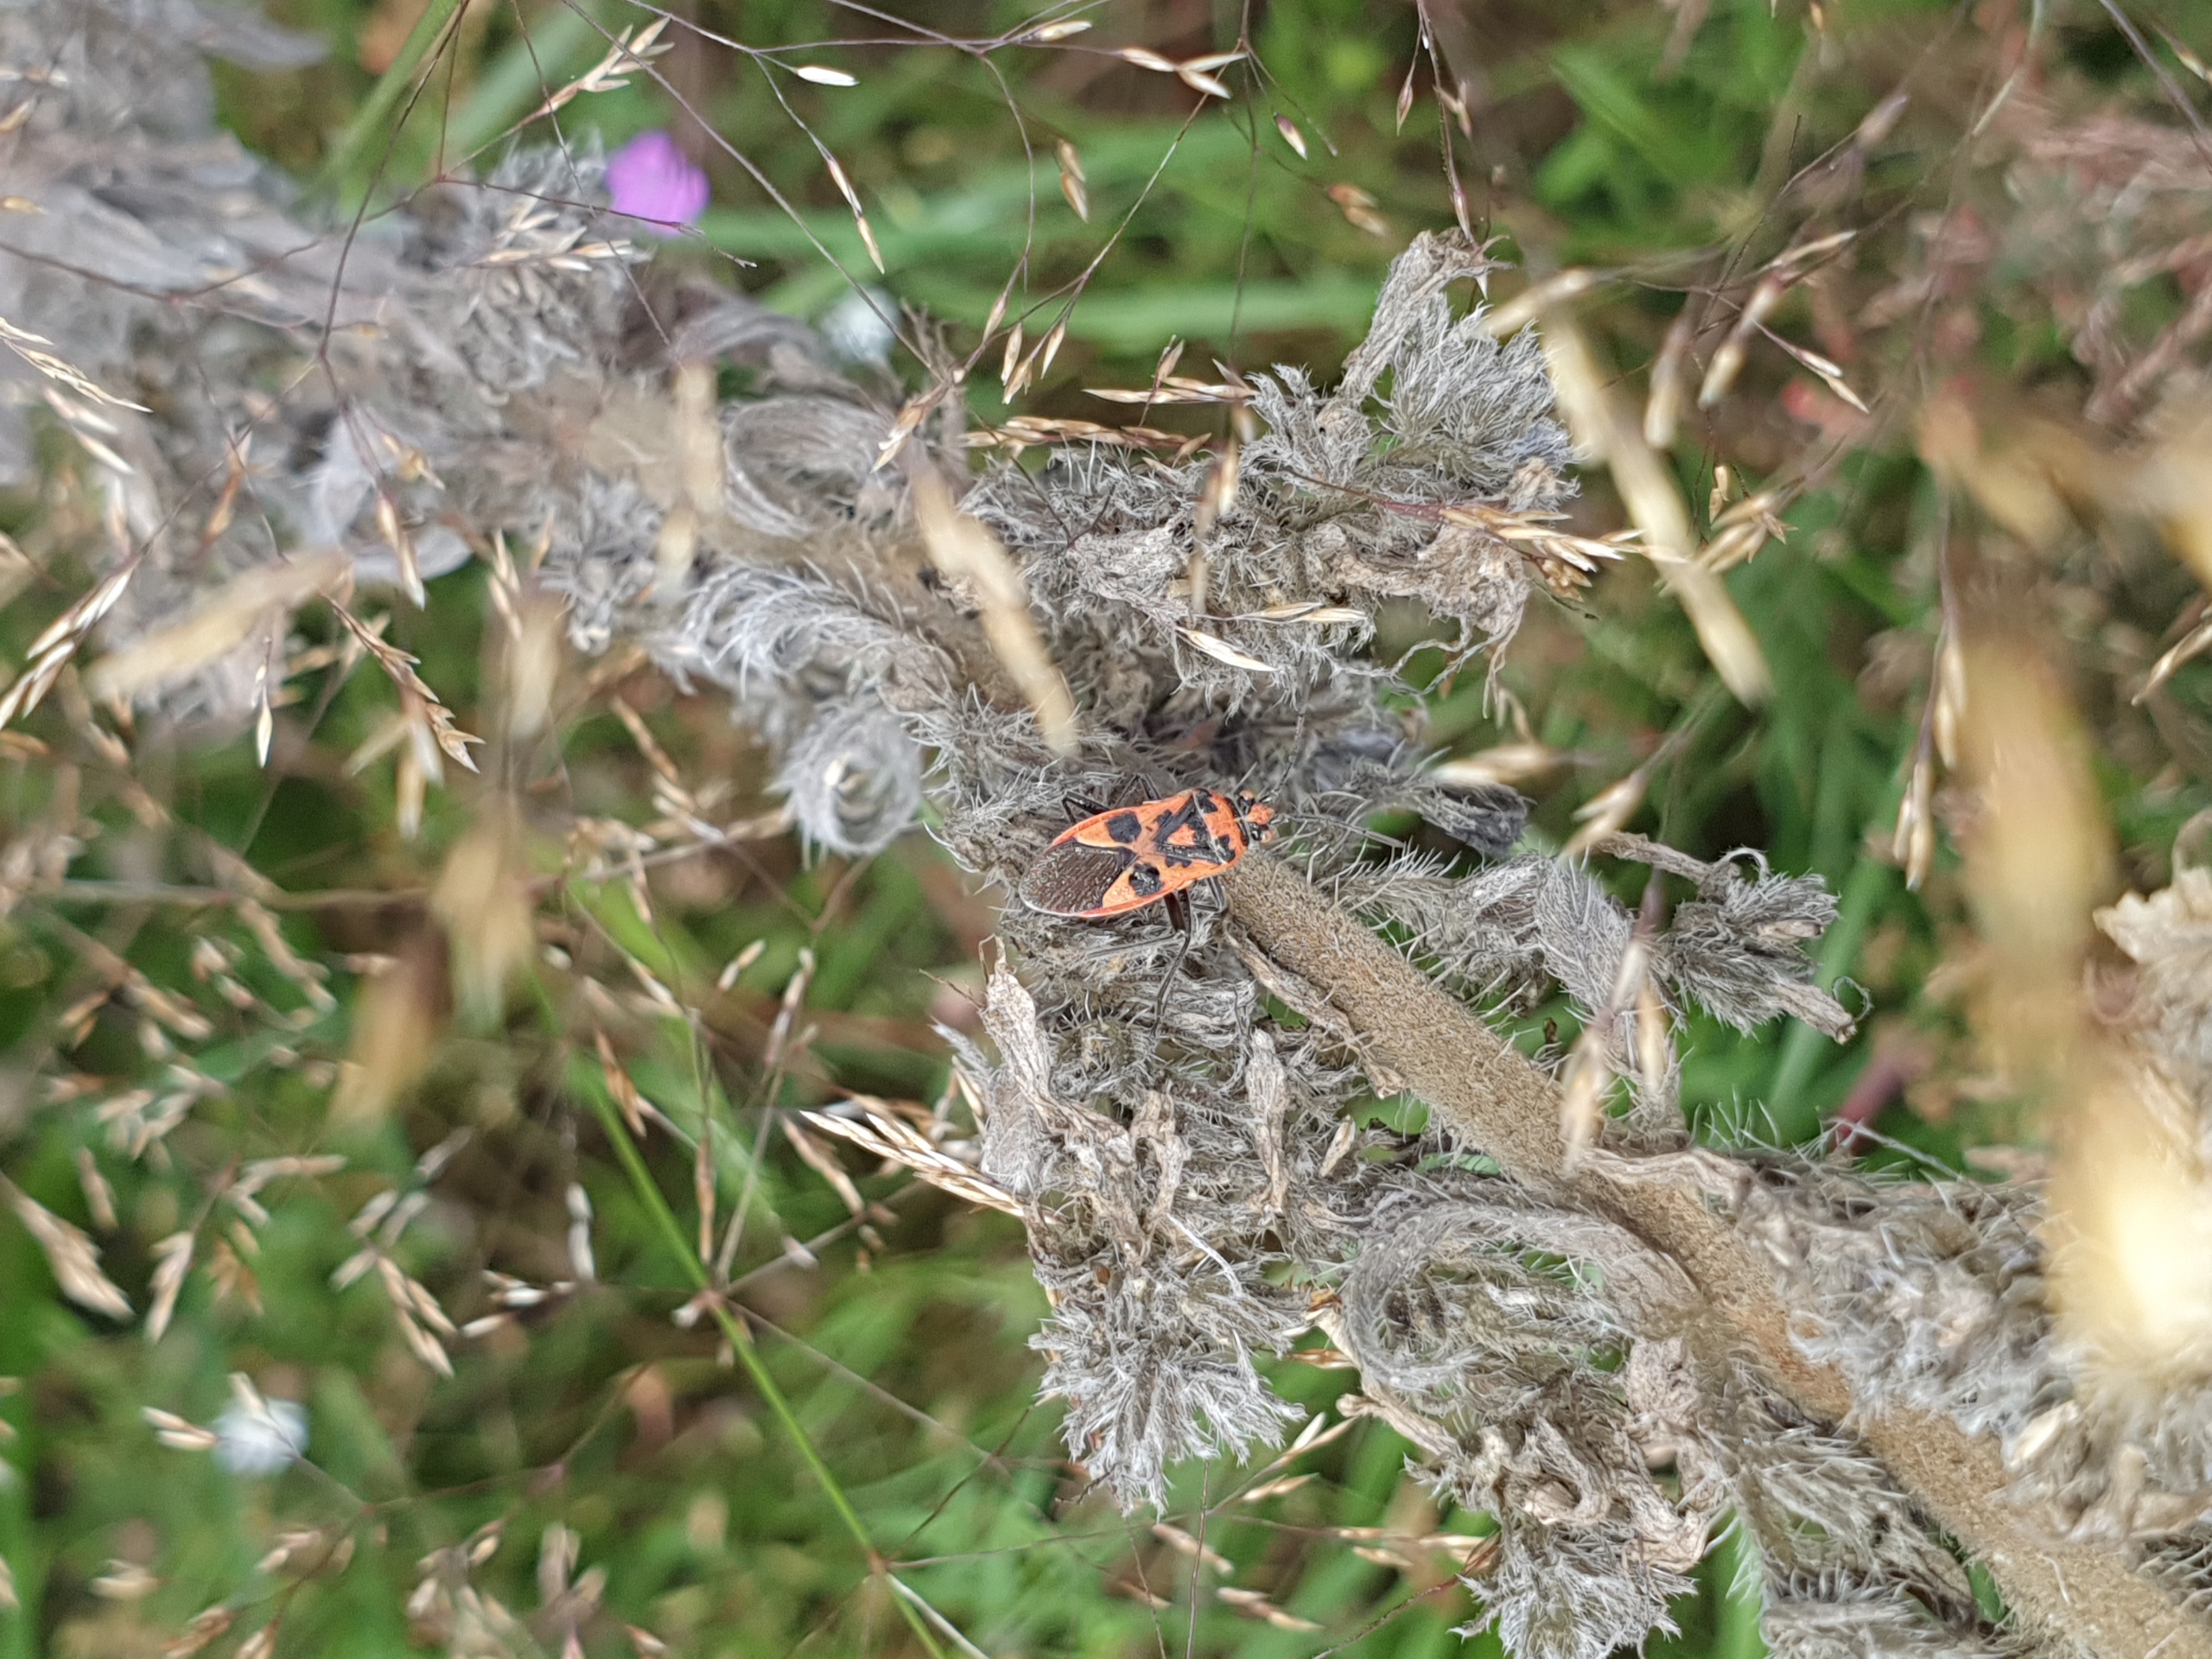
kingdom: Animalia
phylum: Arthropoda
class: Insecta
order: Hemiptera
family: Rhopalidae
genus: Corizus
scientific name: Corizus hyoscyami
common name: Rød kanttæge
